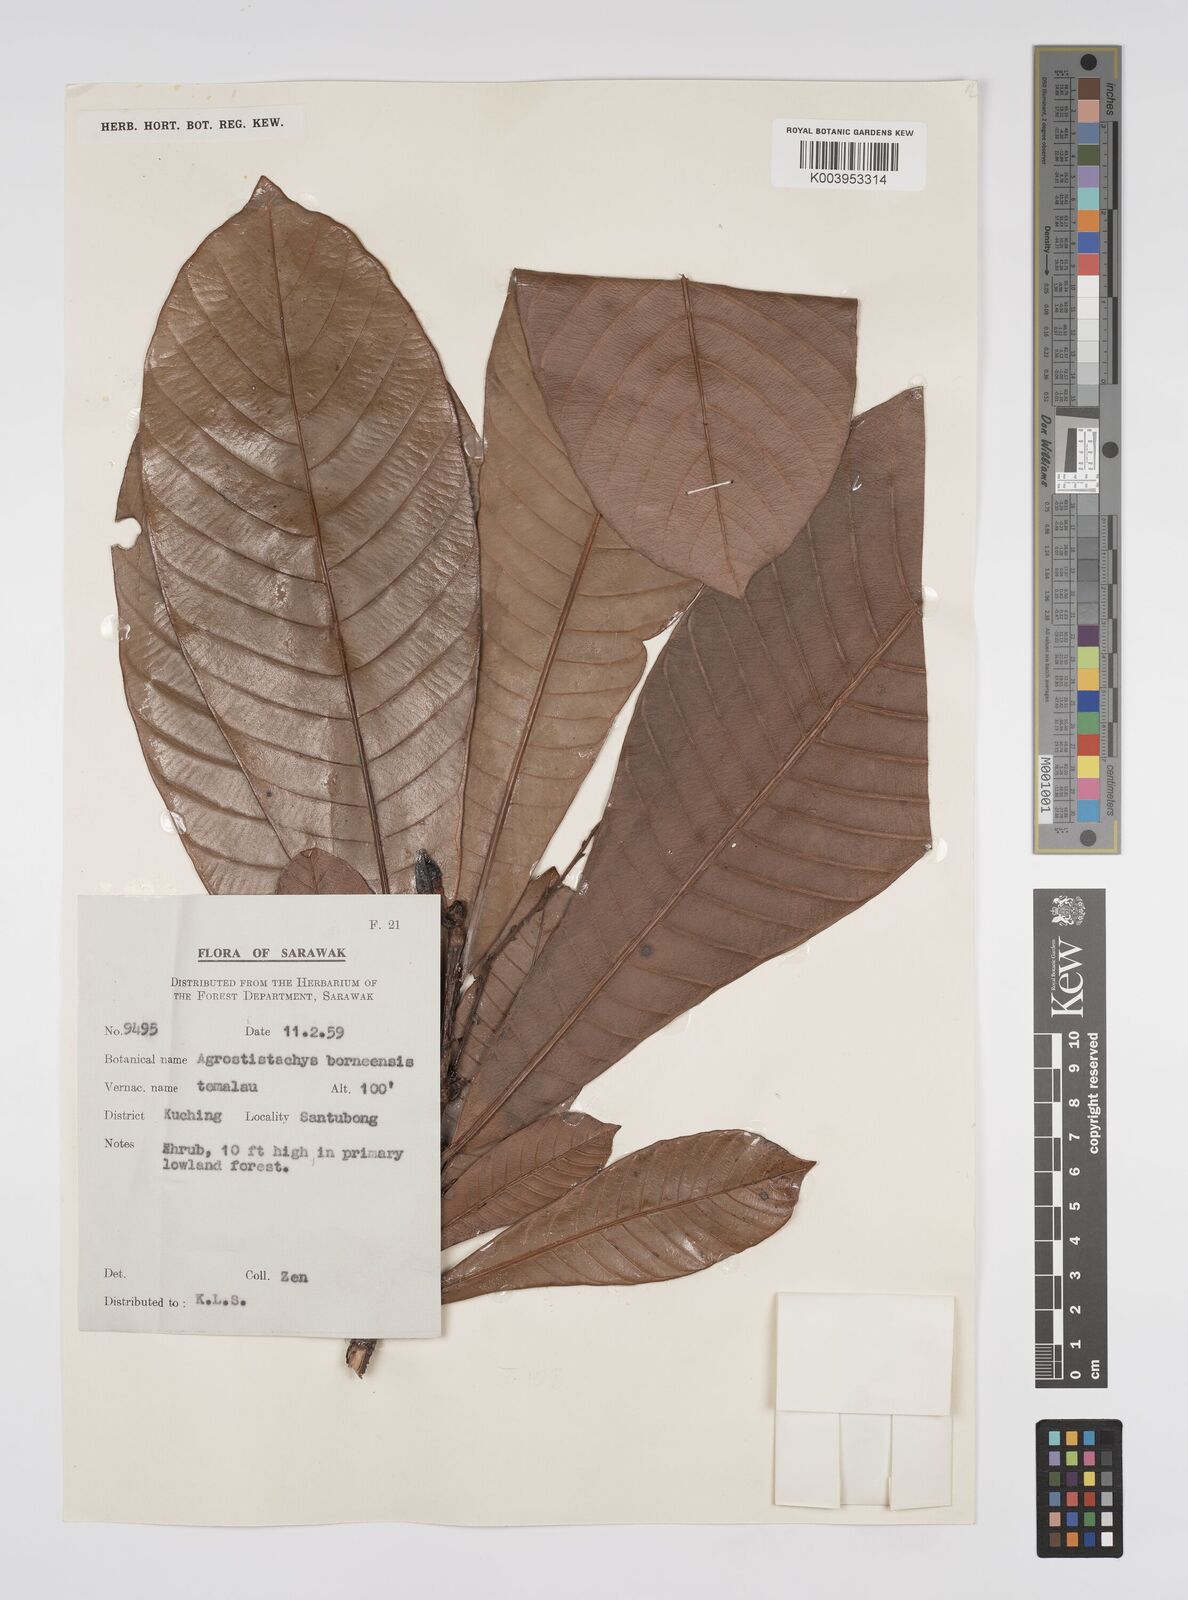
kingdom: Plantae
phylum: Tracheophyta
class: Magnoliopsida
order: Malpighiales
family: Euphorbiaceae
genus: Agrostistachys
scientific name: Agrostistachys
